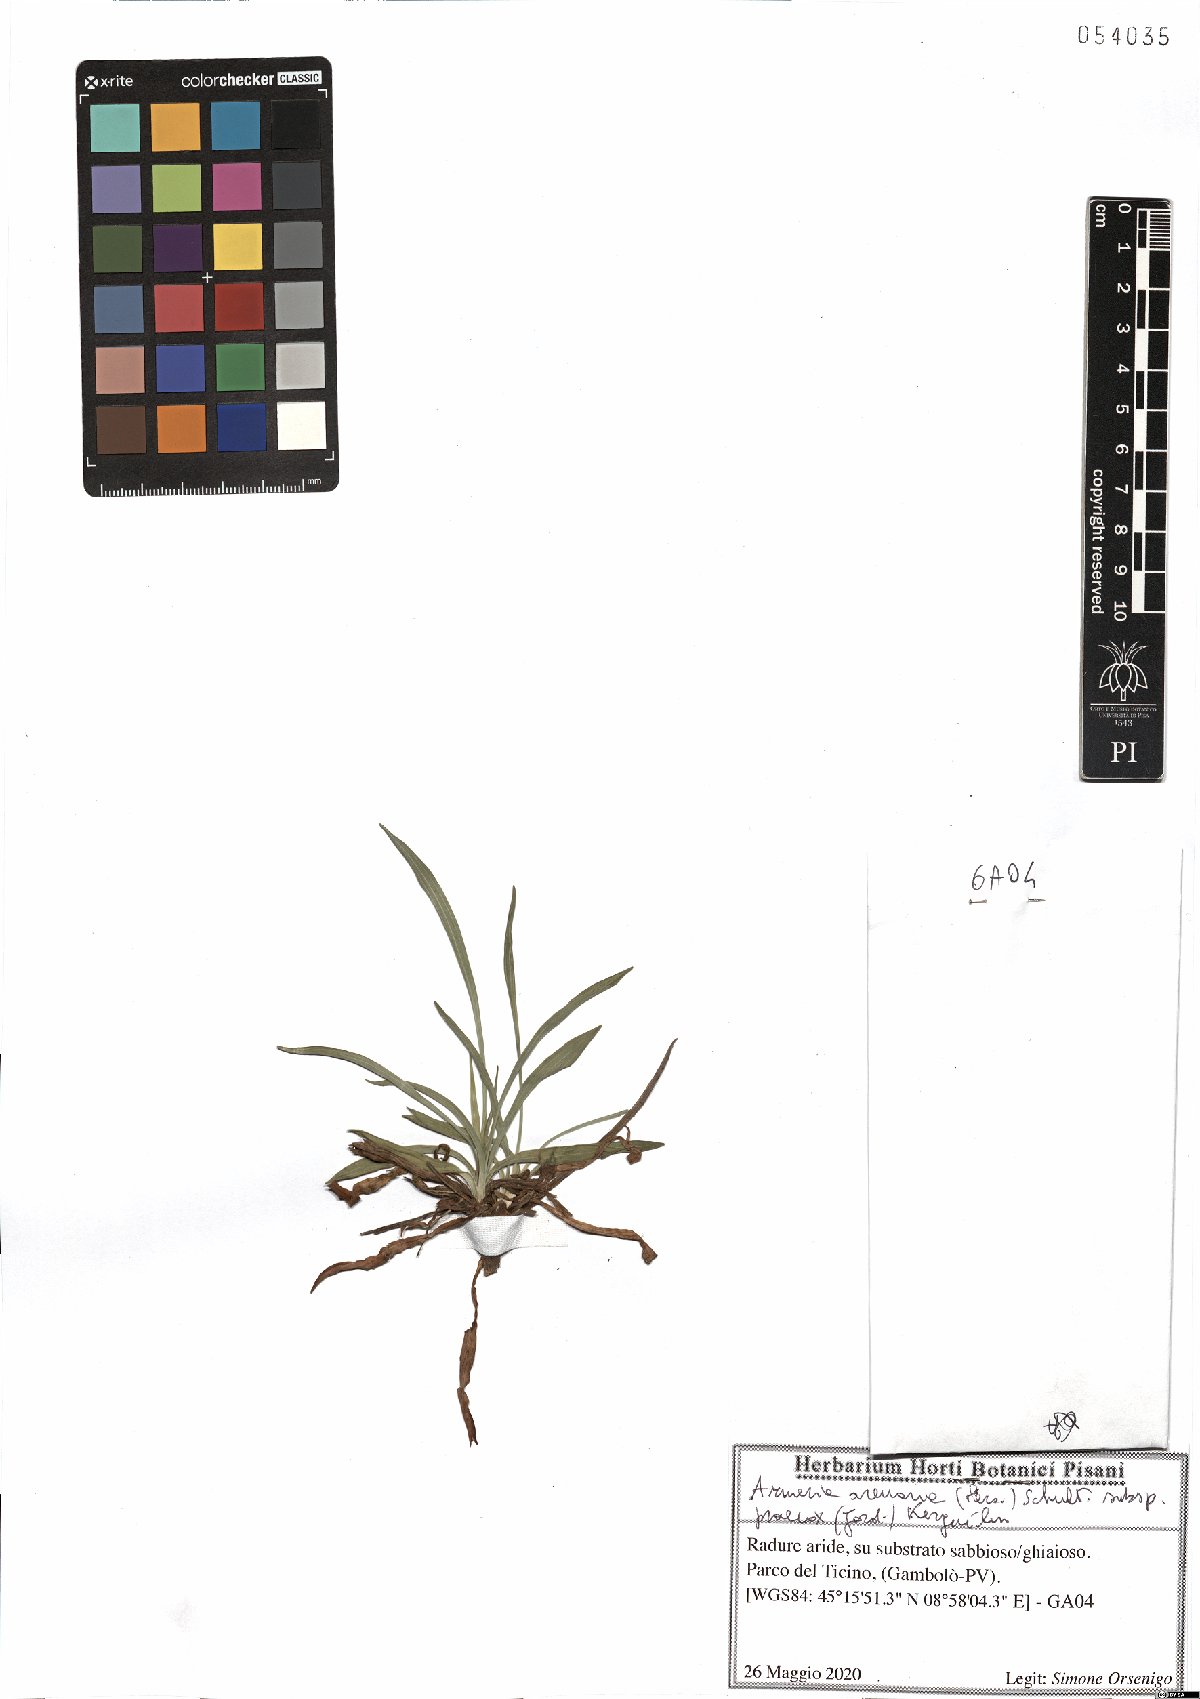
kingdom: Plantae
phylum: Tracheophyta
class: Magnoliopsida
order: Caryophyllales
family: Plumbaginaceae
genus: Armeria
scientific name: Armeria arenaria
